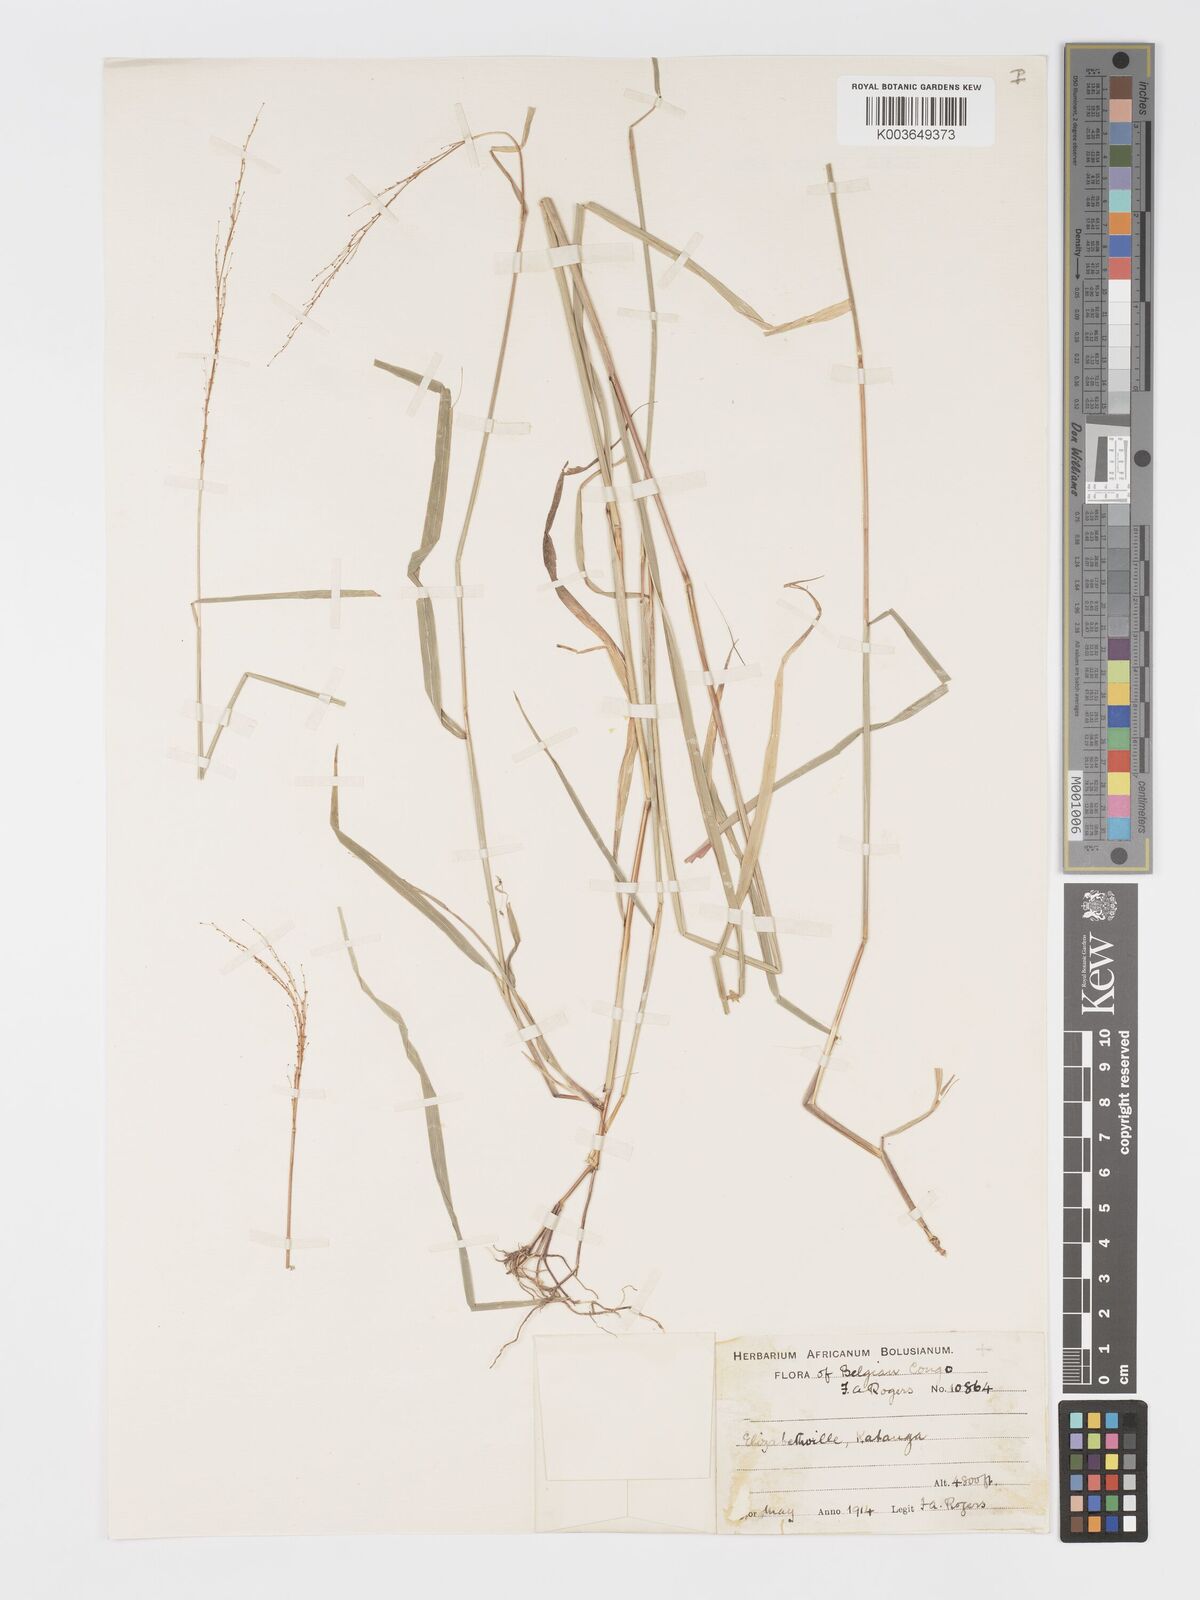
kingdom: Plantae
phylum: Tracheophyta
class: Liliopsida
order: Poales
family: Poaceae
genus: Sorghastrum
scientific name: Sorghastrum incompletum
